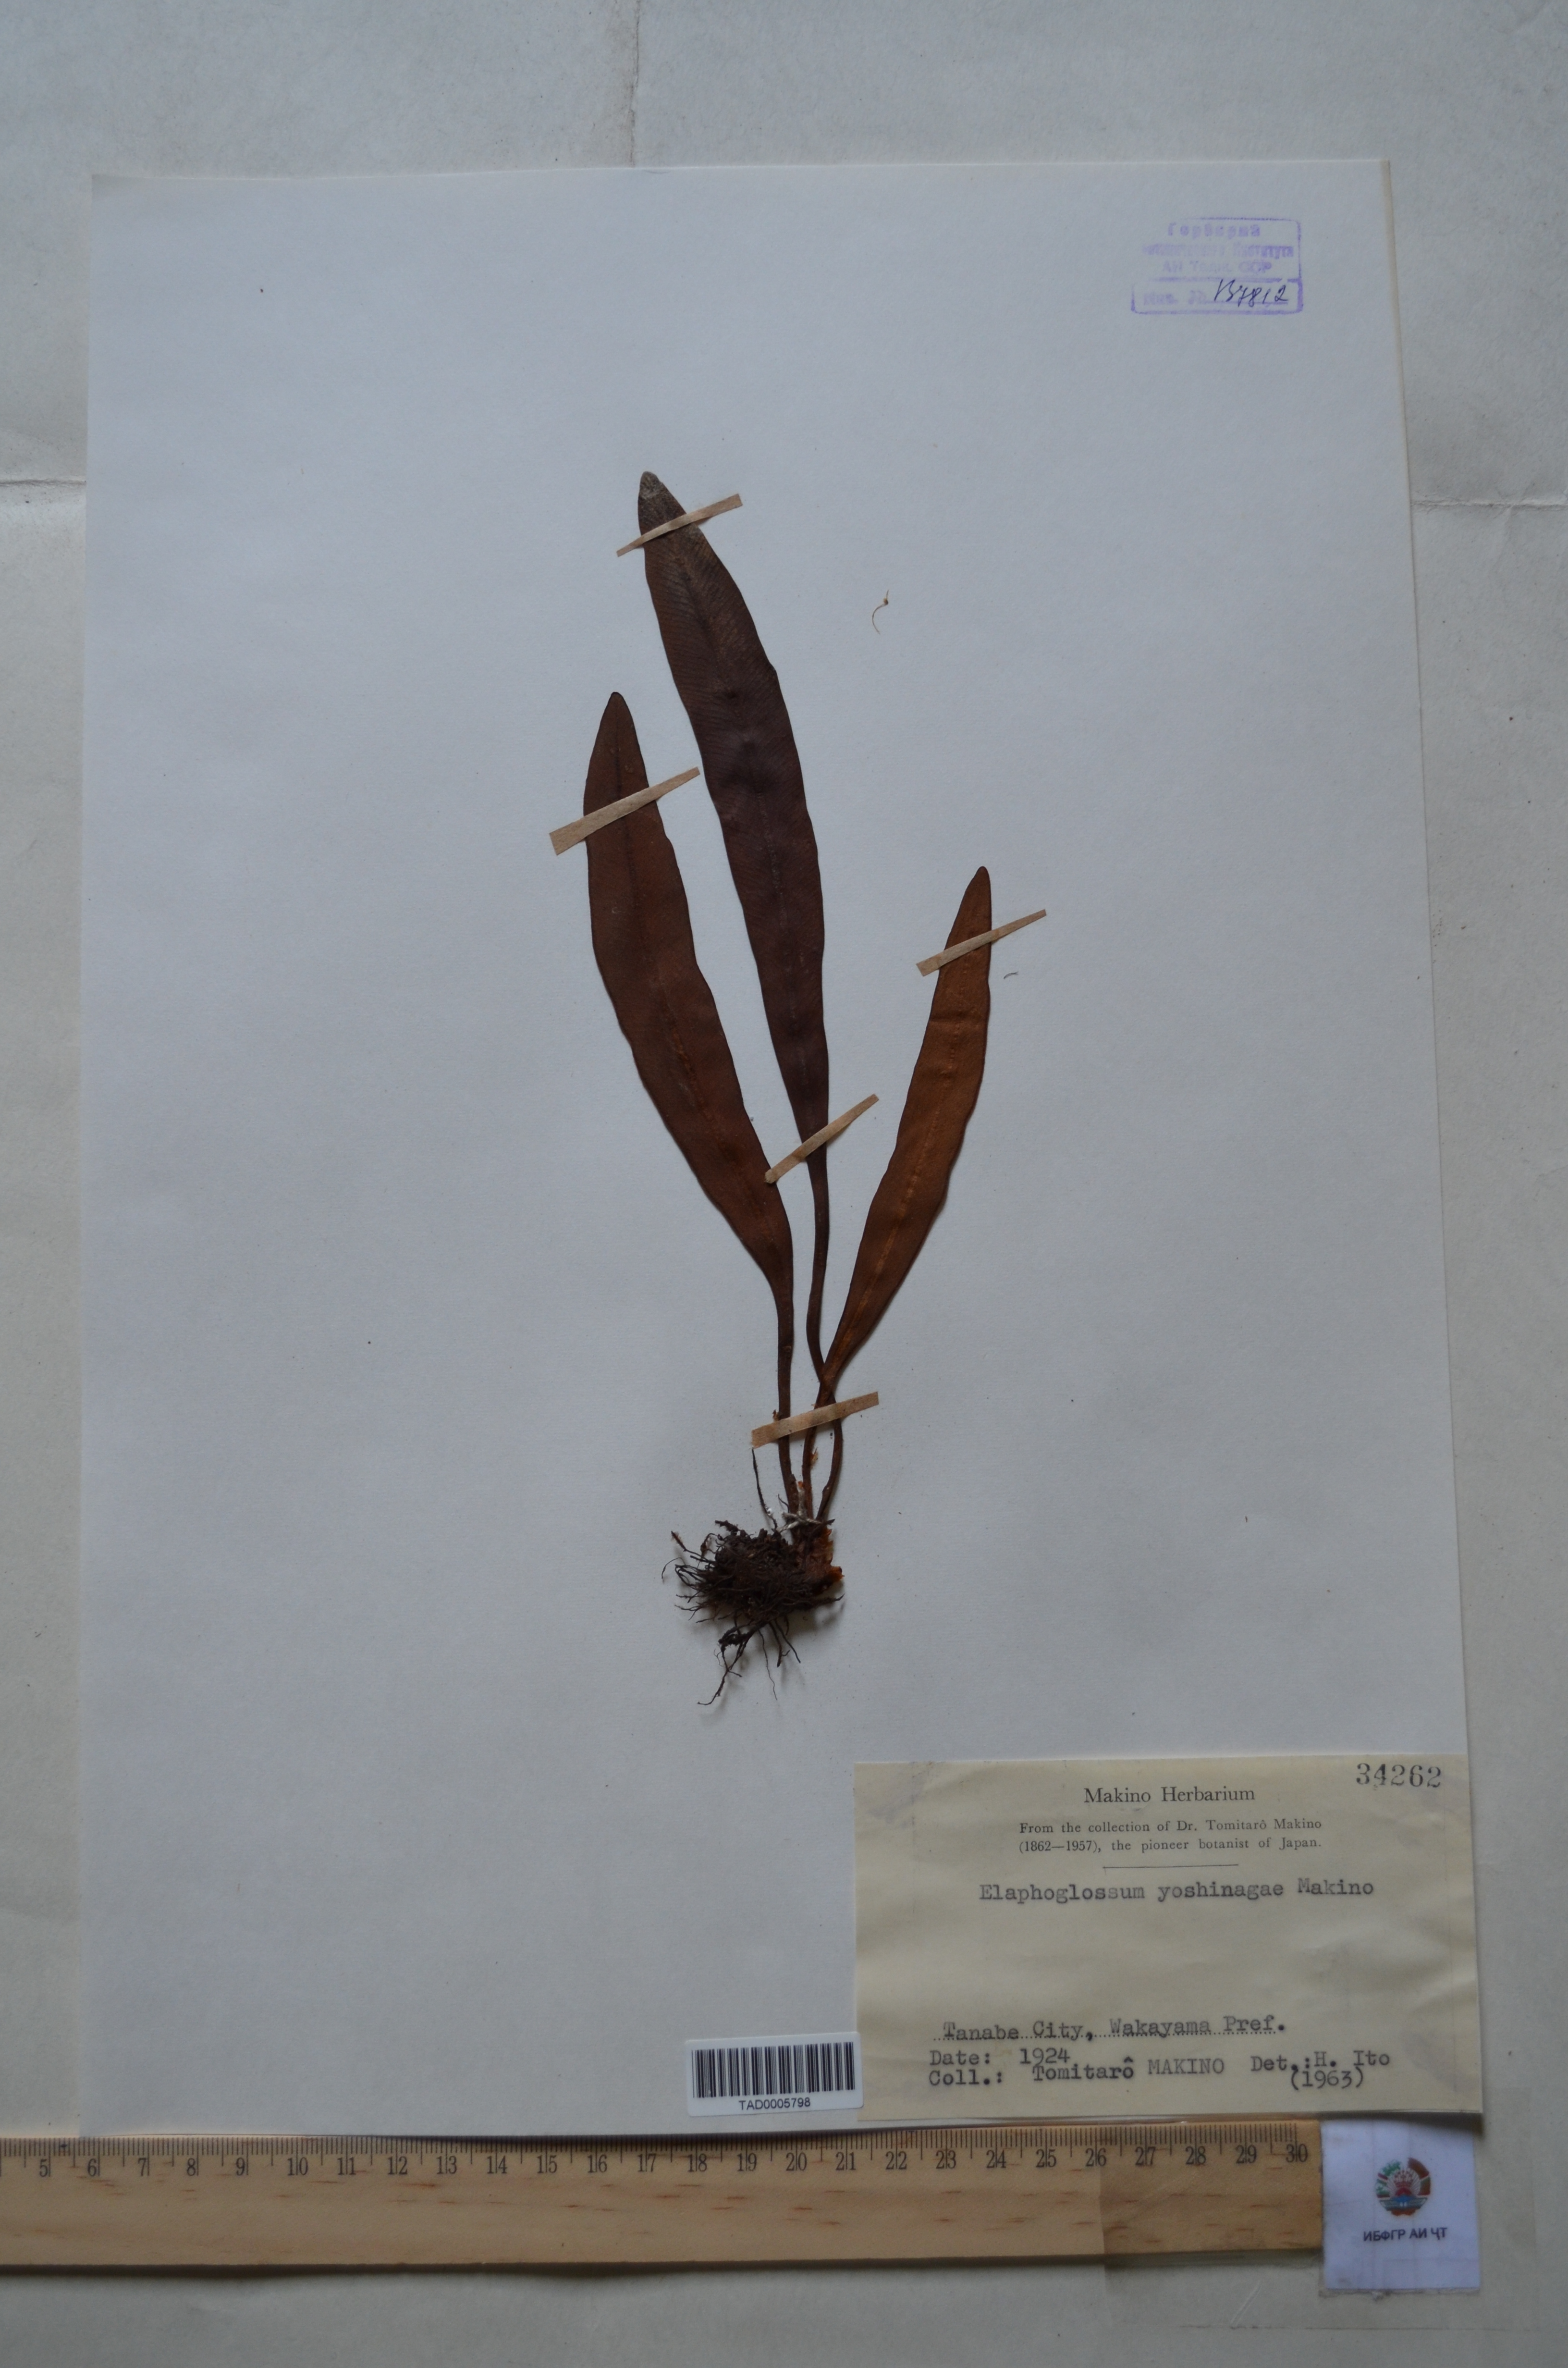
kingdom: Plantae
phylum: Tracheophyta
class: Polypodiopsida
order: Polypodiales
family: Dryopteridaceae
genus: Elaphoglossum
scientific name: Elaphoglossum yoshinagae
